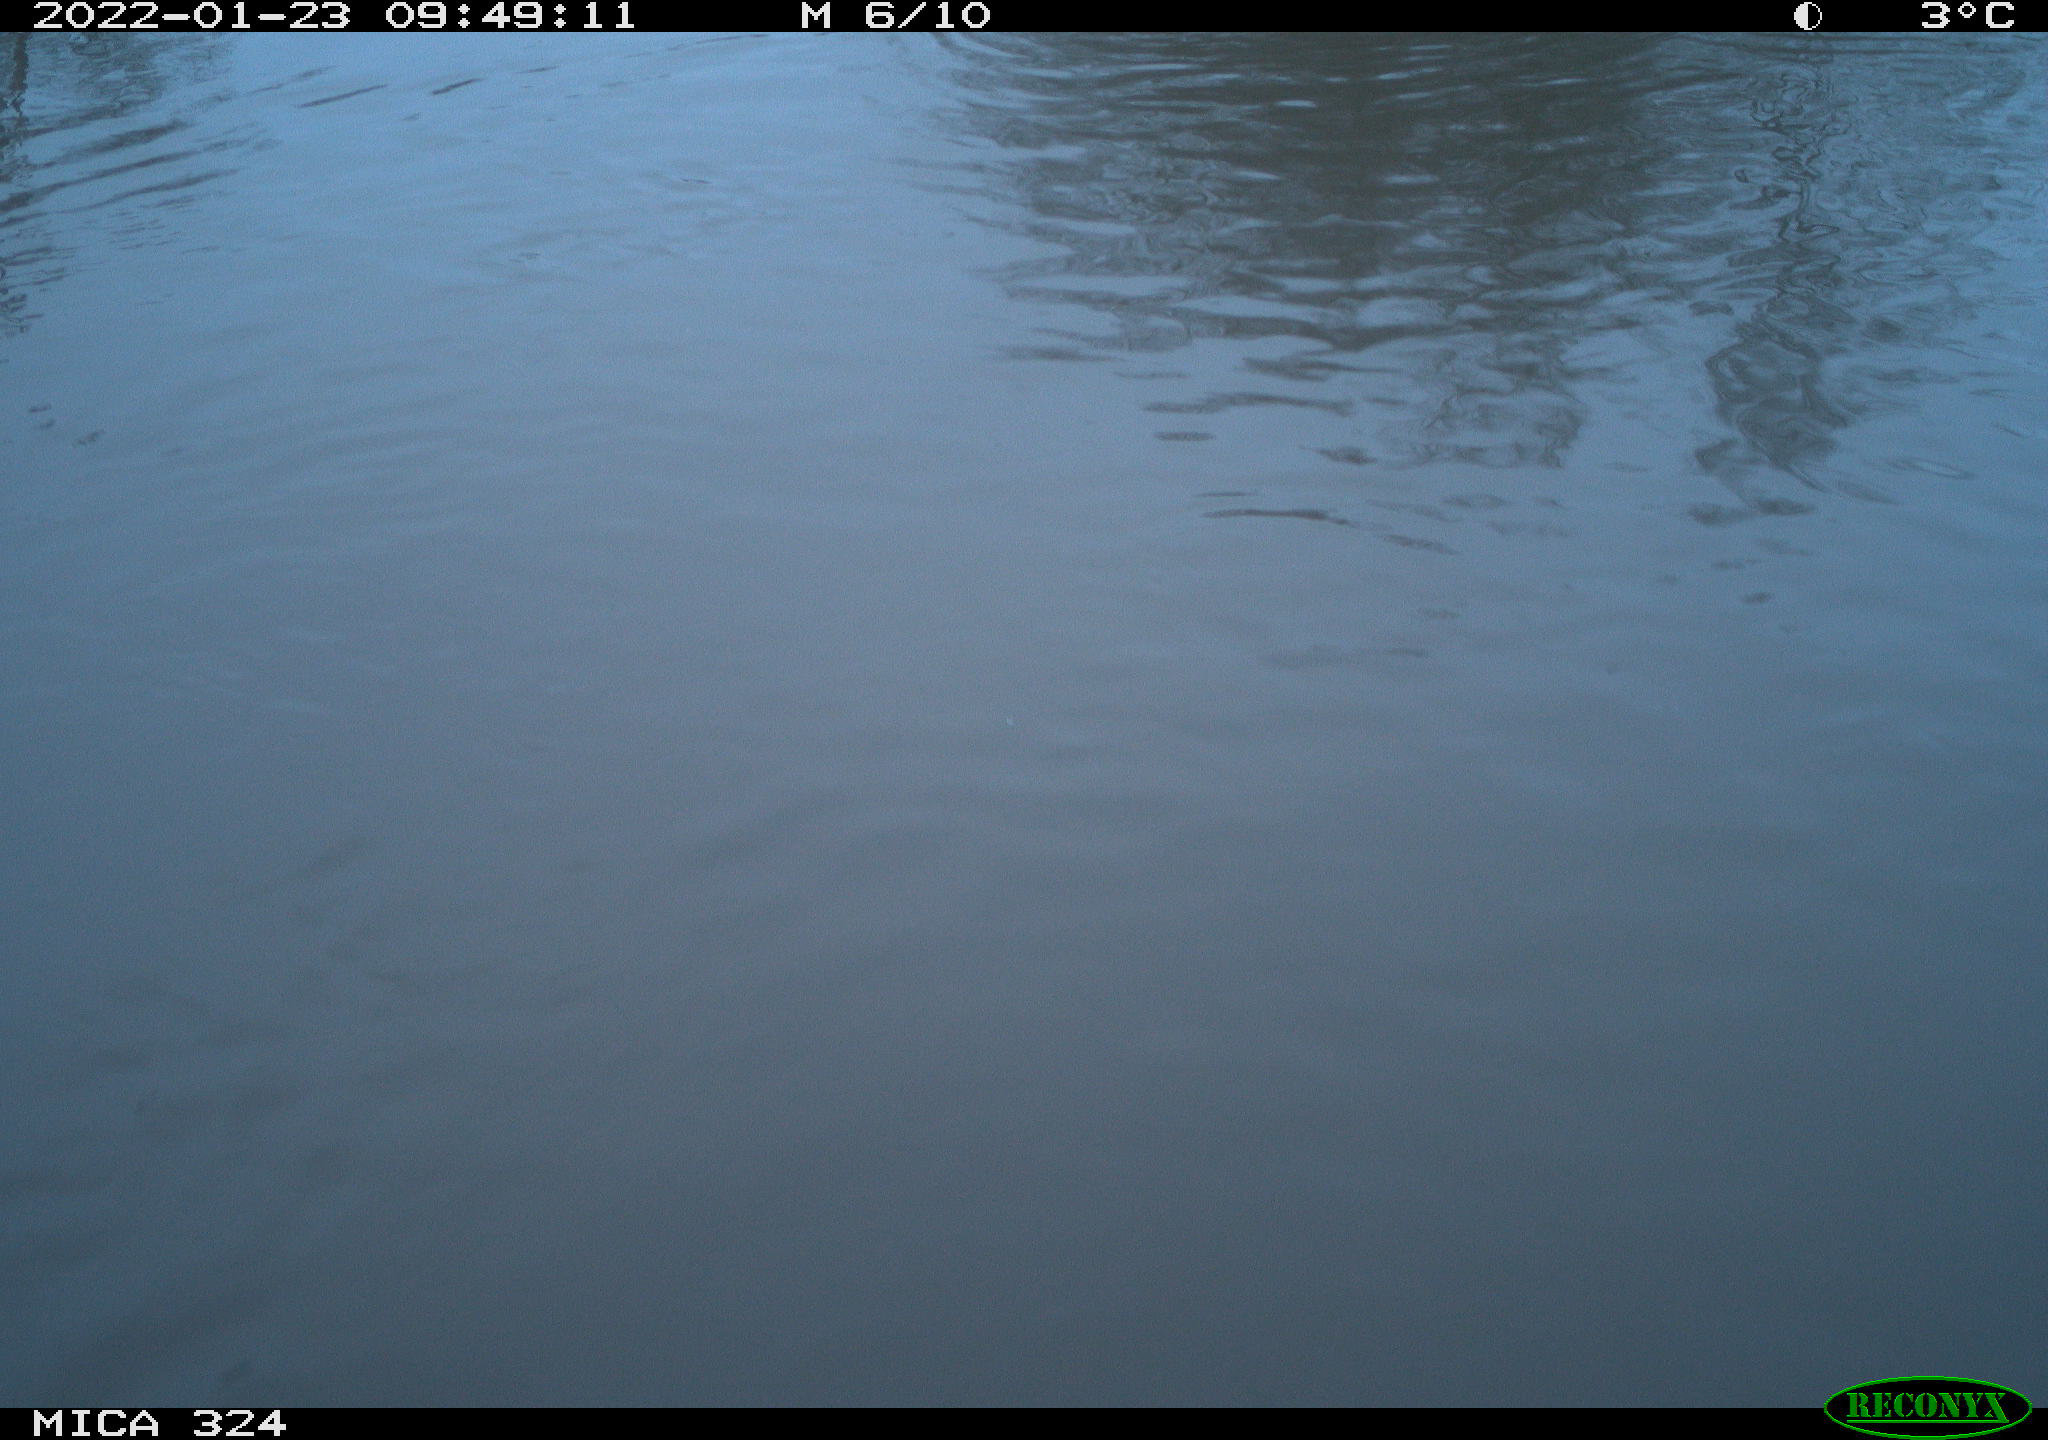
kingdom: Animalia
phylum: Chordata
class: Mammalia
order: Rodentia
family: Cricetidae
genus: Ondatra
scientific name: Ondatra zibethicus
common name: Muskrat
